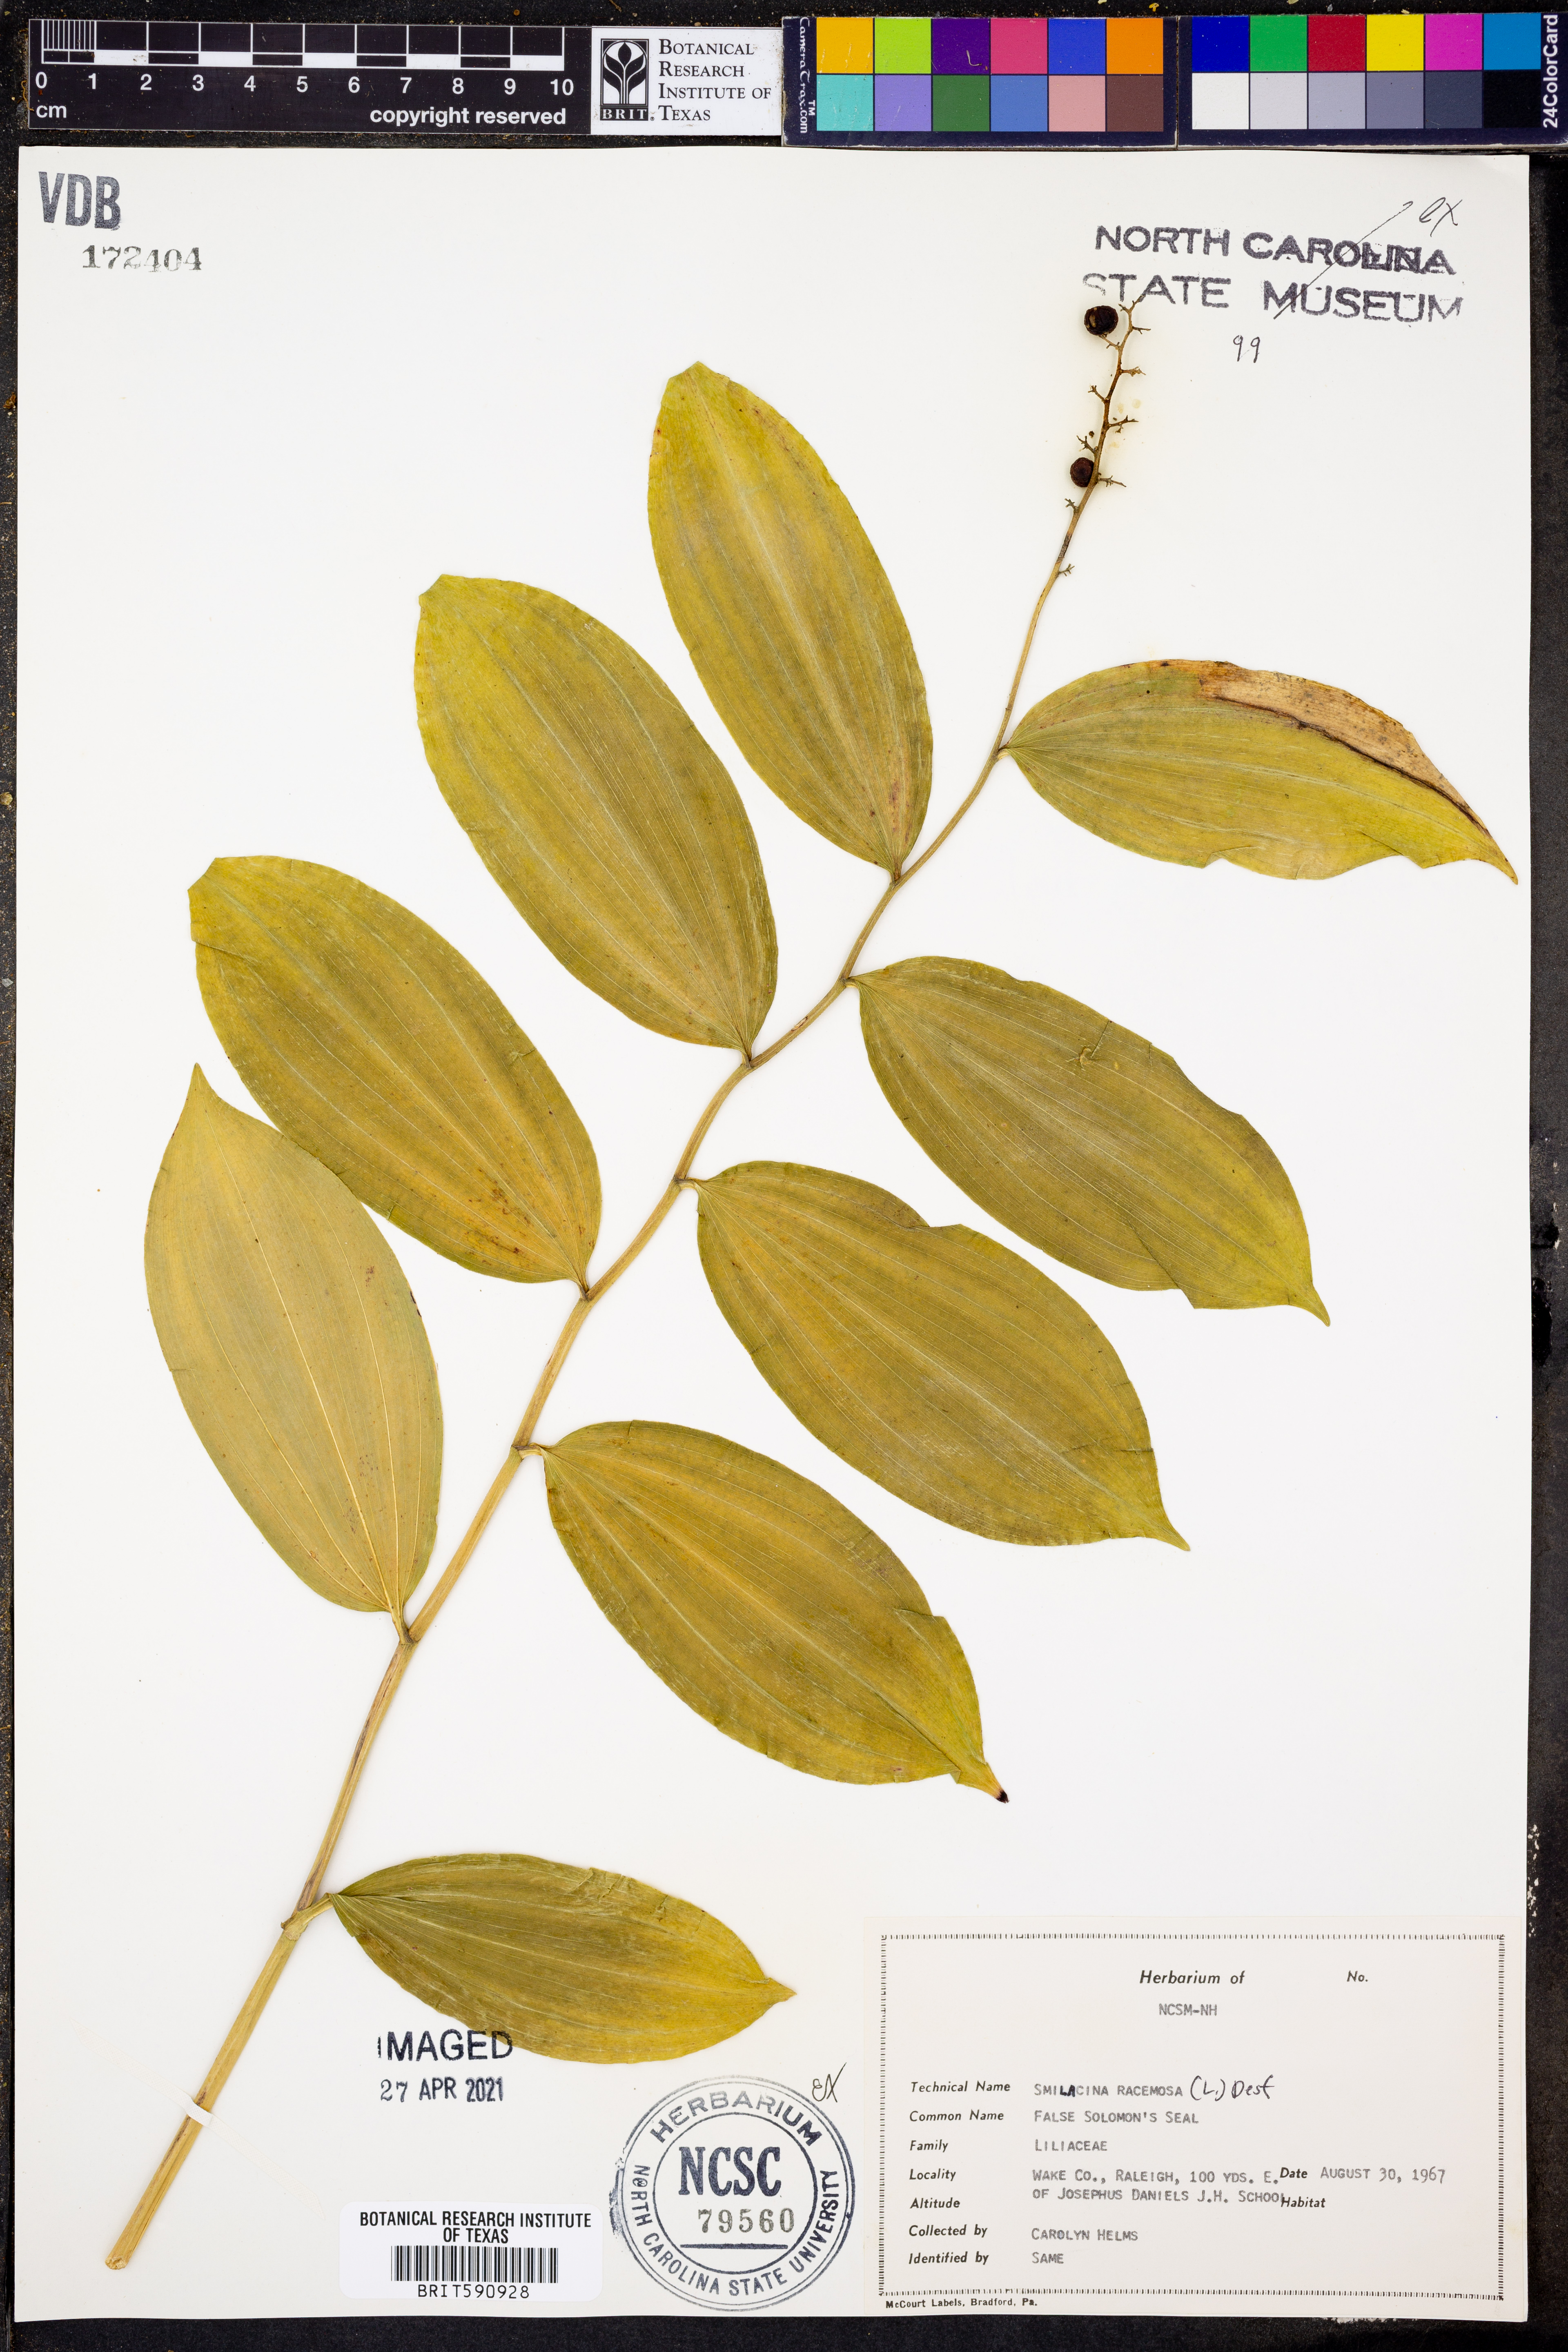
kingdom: Plantae
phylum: Tracheophyta
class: Liliopsida
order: Asparagales
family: Asparagaceae
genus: Maianthemum
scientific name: Maianthemum racemosum
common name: False spikenard
